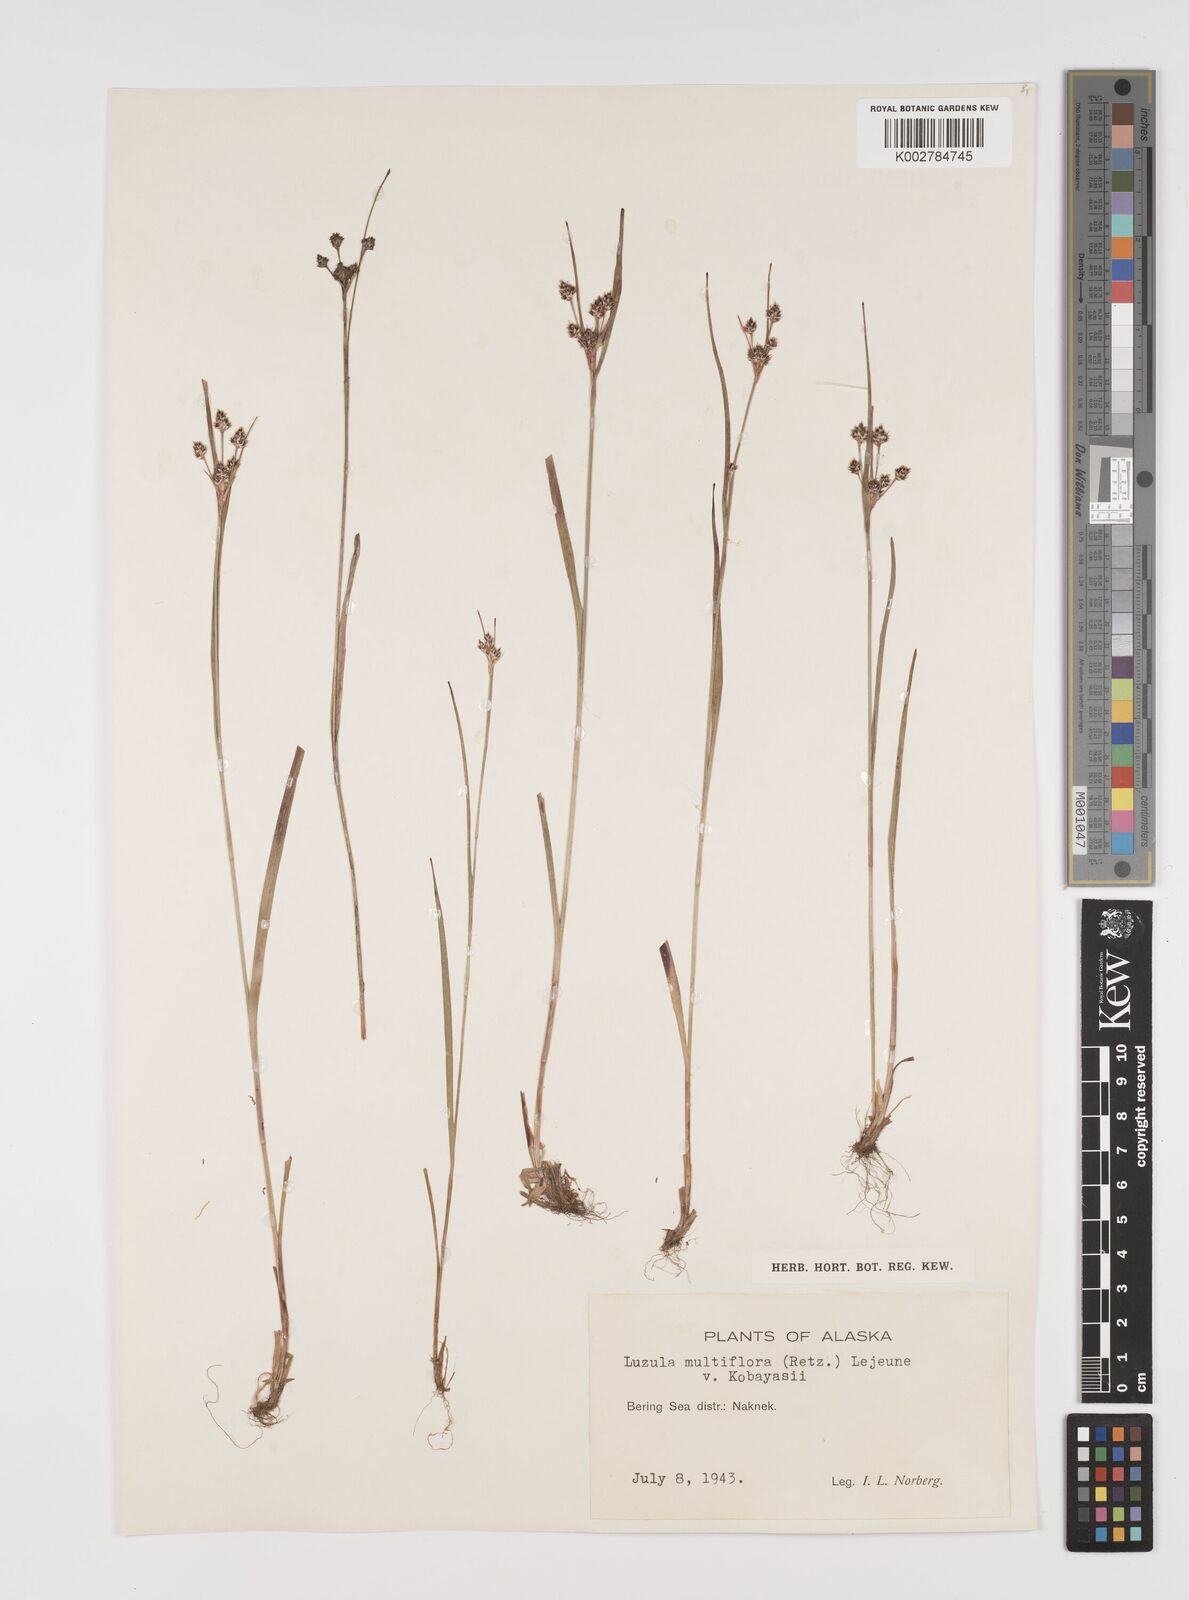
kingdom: Plantae
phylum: Tracheophyta
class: Liliopsida
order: Poales
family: Juncaceae
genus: Luzula
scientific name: Luzula campestris
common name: Field wood-rush
